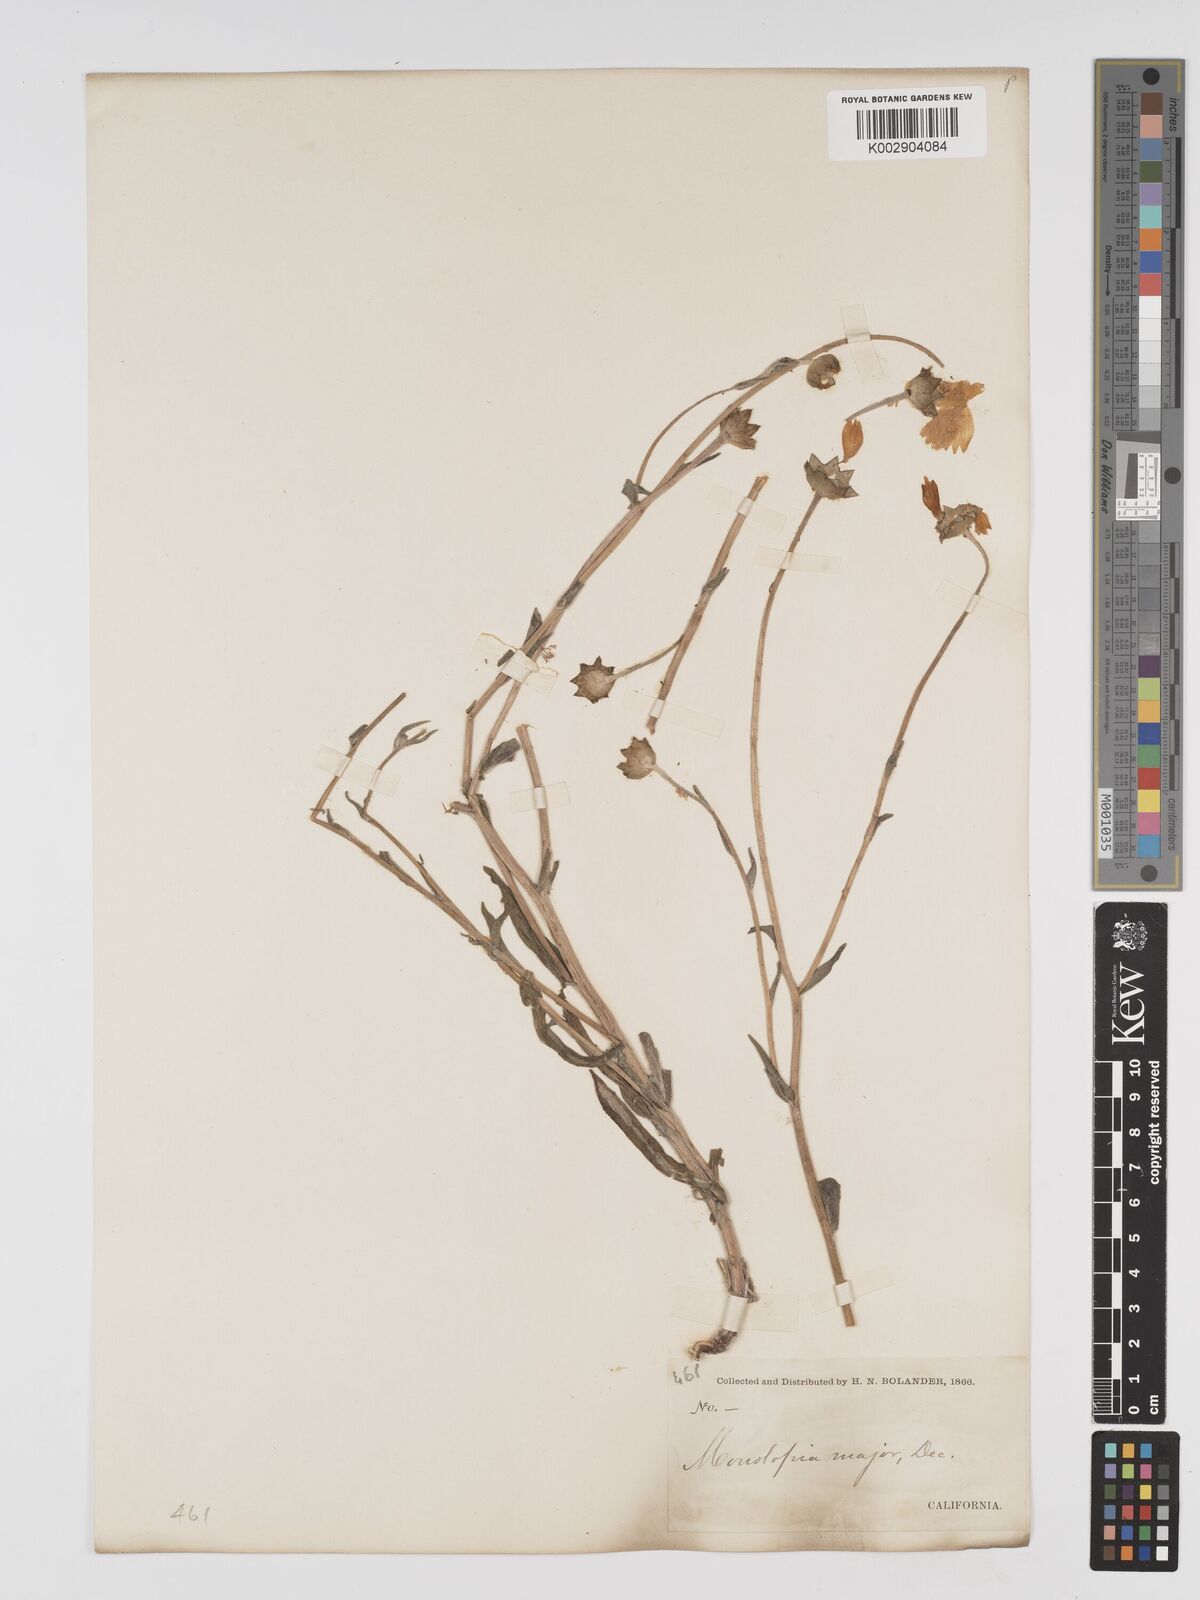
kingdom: Plantae
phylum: Tracheophyta
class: Magnoliopsida
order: Asterales
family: Asteraceae
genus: Monolopia
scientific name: Monolopia major
